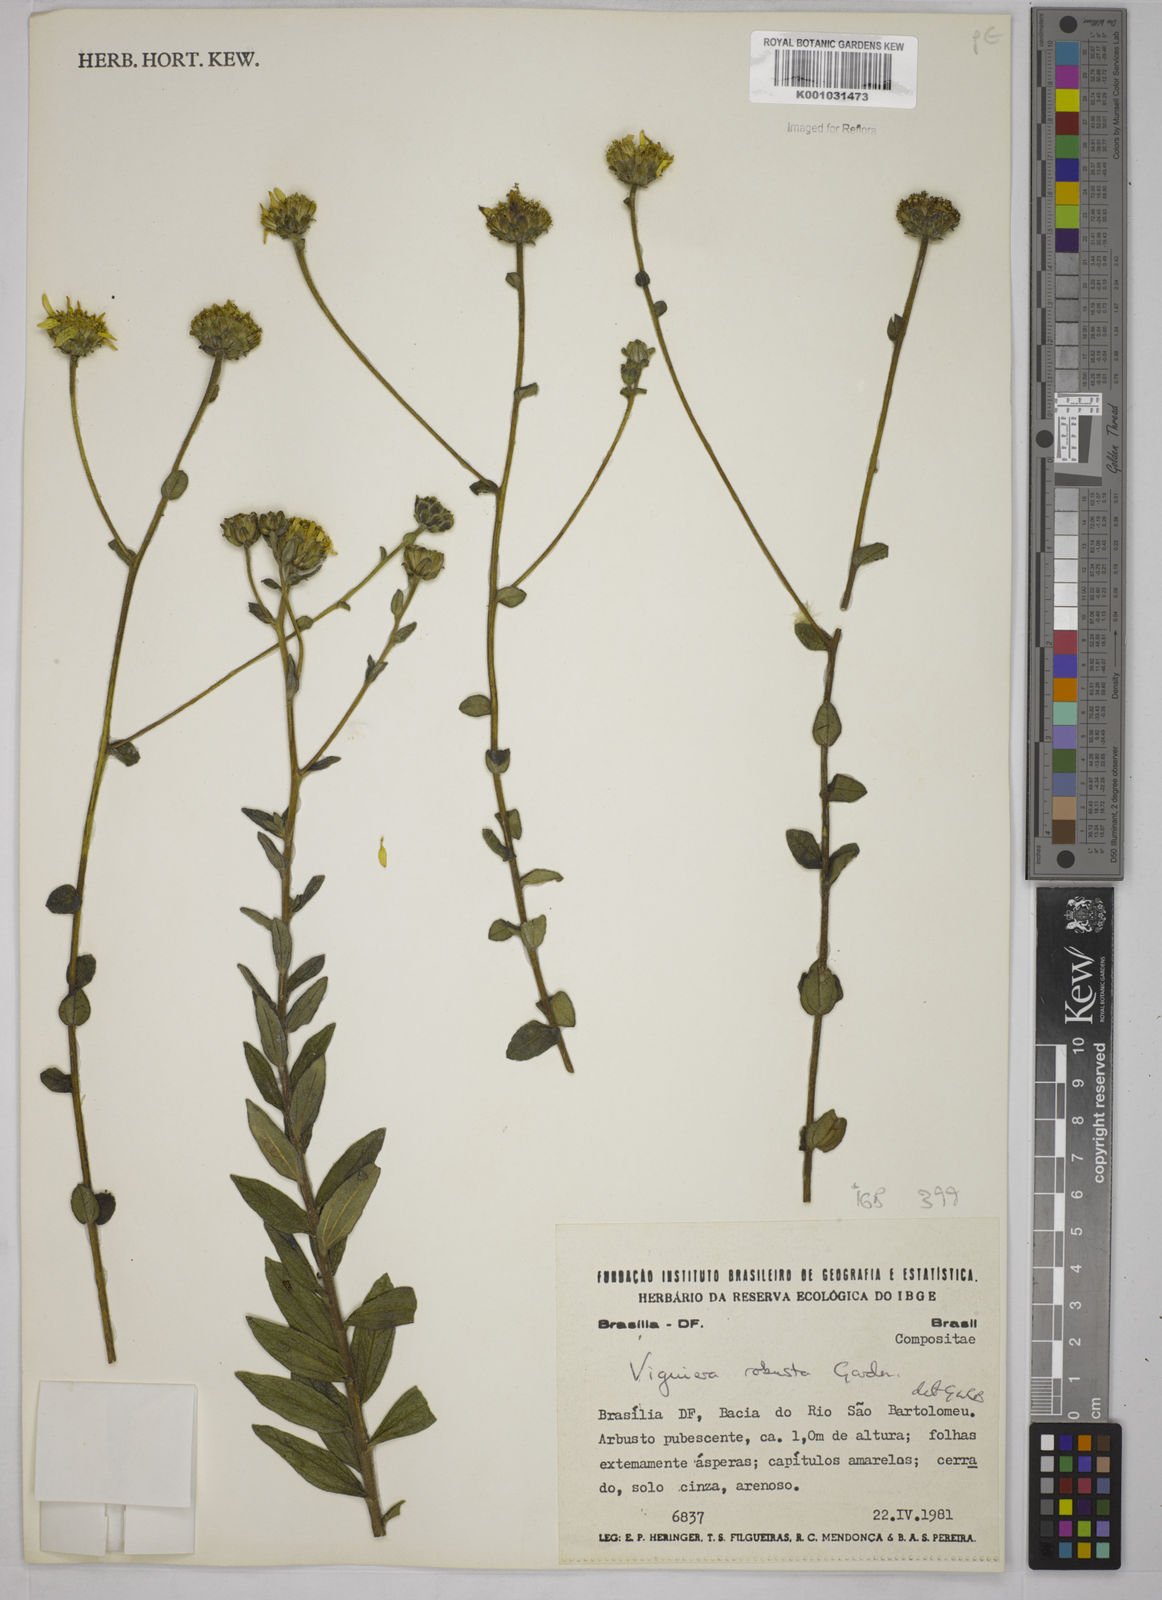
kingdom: Plantae
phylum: Tracheophyta
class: Magnoliopsida
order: Asterales
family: Asteraceae
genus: Aldama
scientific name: Aldama robusta
